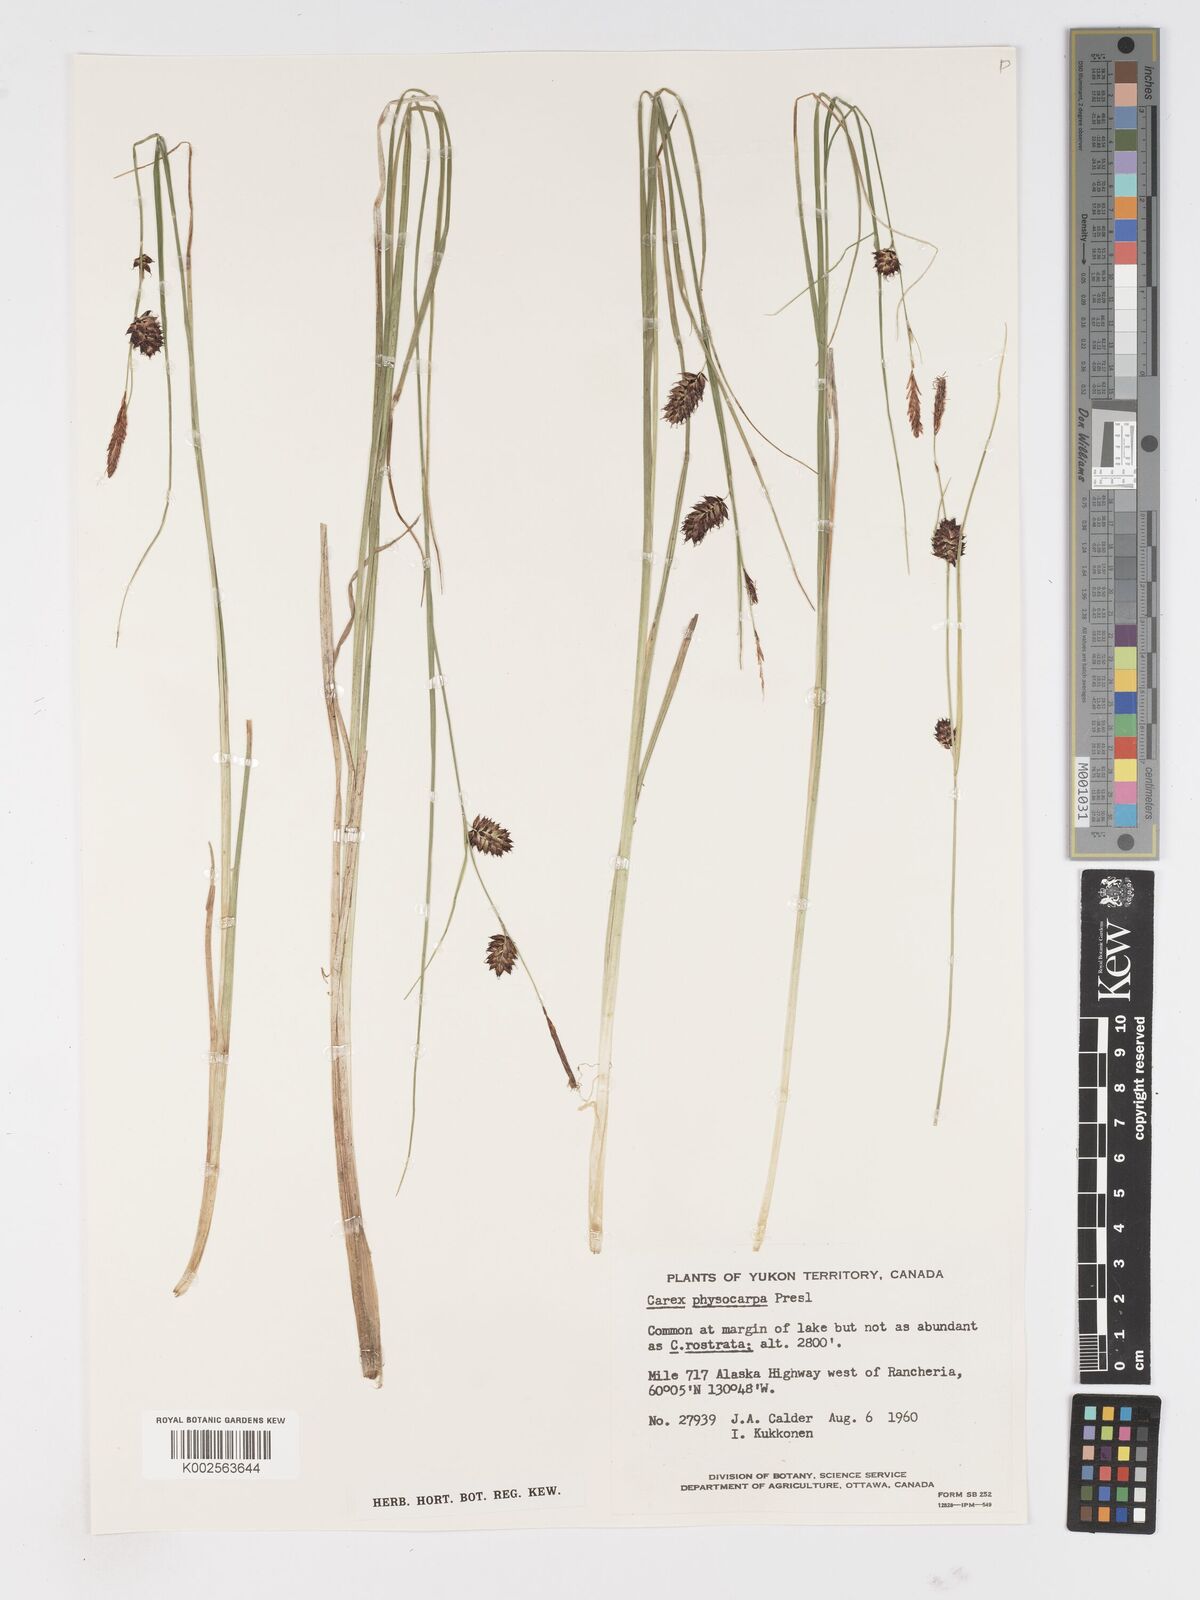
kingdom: Plantae
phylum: Tracheophyta
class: Liliopsida
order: Poales
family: Cyperaceae
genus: Carex
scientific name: Carex saxatilis
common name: Russet sedge
